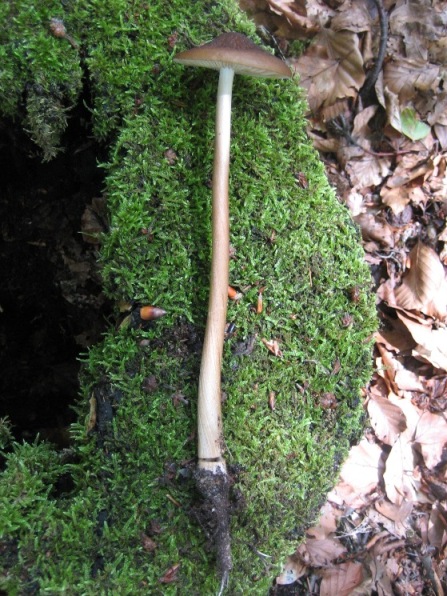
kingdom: Fungi
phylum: Basidiomycota
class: Agaricomycetes
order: Agaricales
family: Physalacriaceae
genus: Hymenopellis
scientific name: Hymenopellis radicata
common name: almindelig pælerodshat
